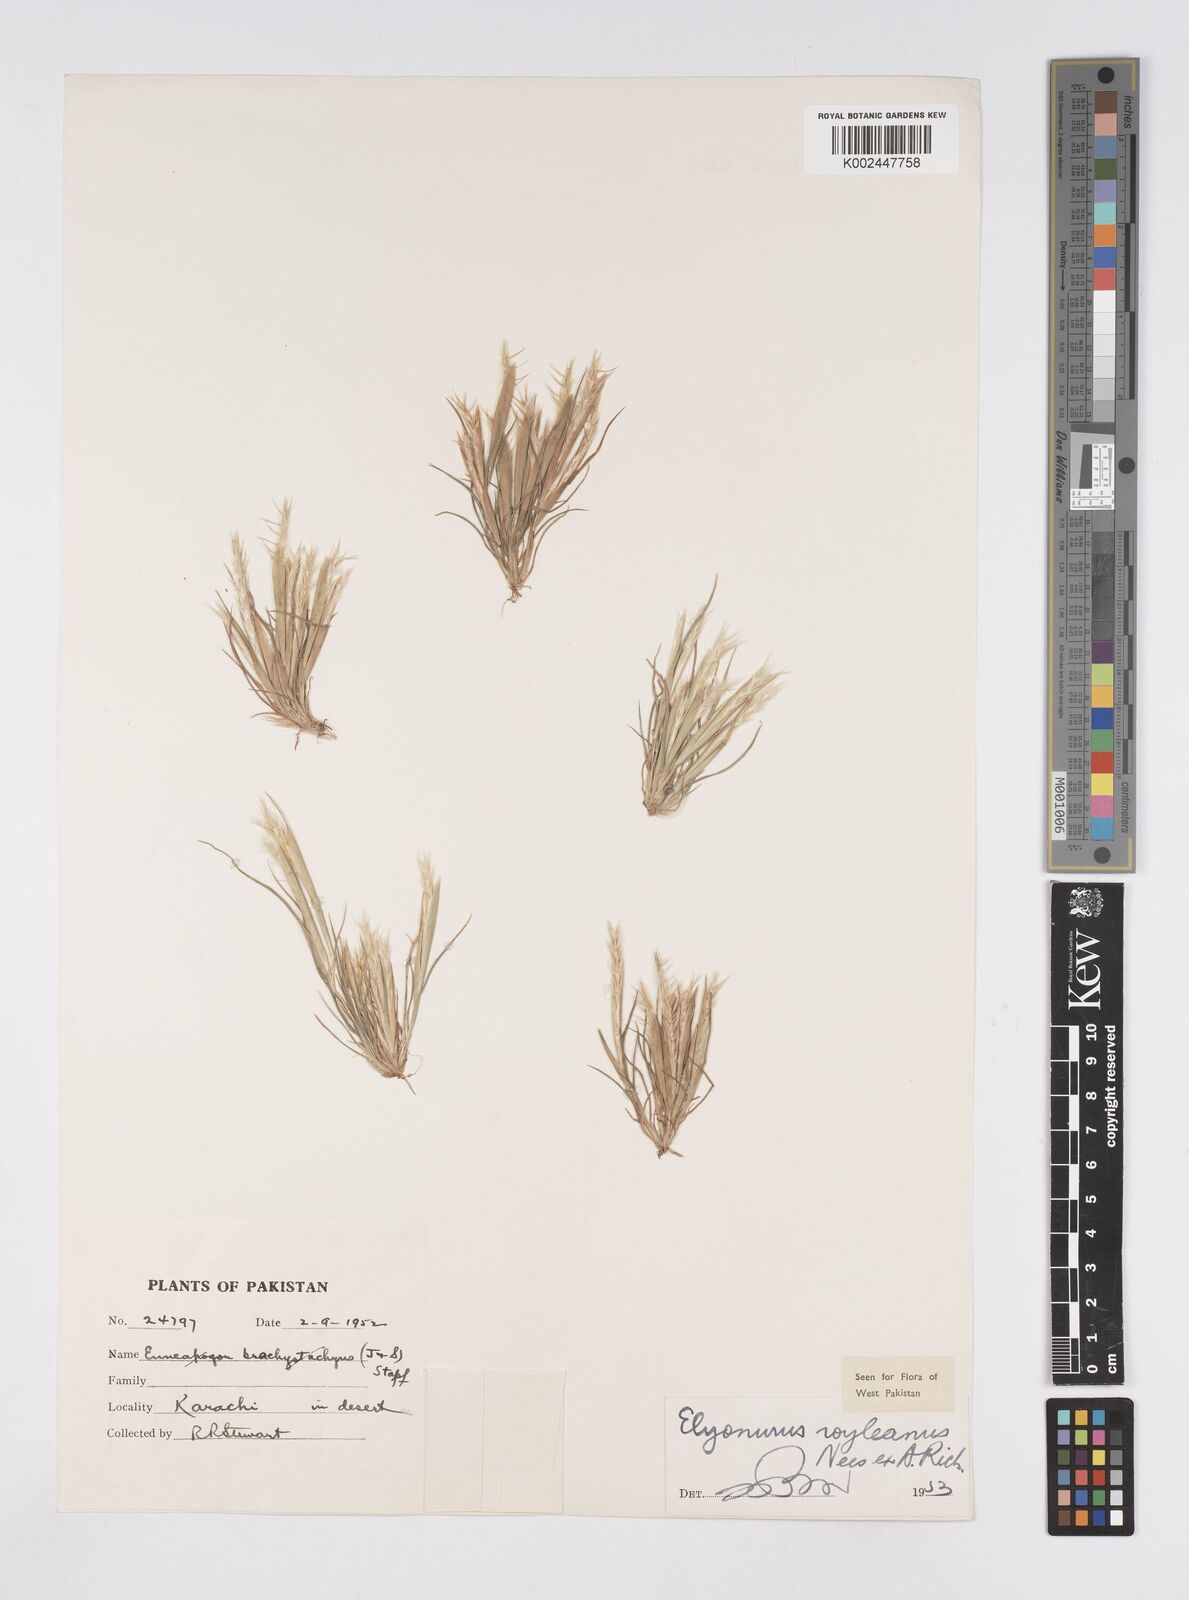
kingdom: Plantae
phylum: Tracheophyta
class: Liliopsida
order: Poales
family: Poaceae
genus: Elionurus
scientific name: Elionurus royleanus
